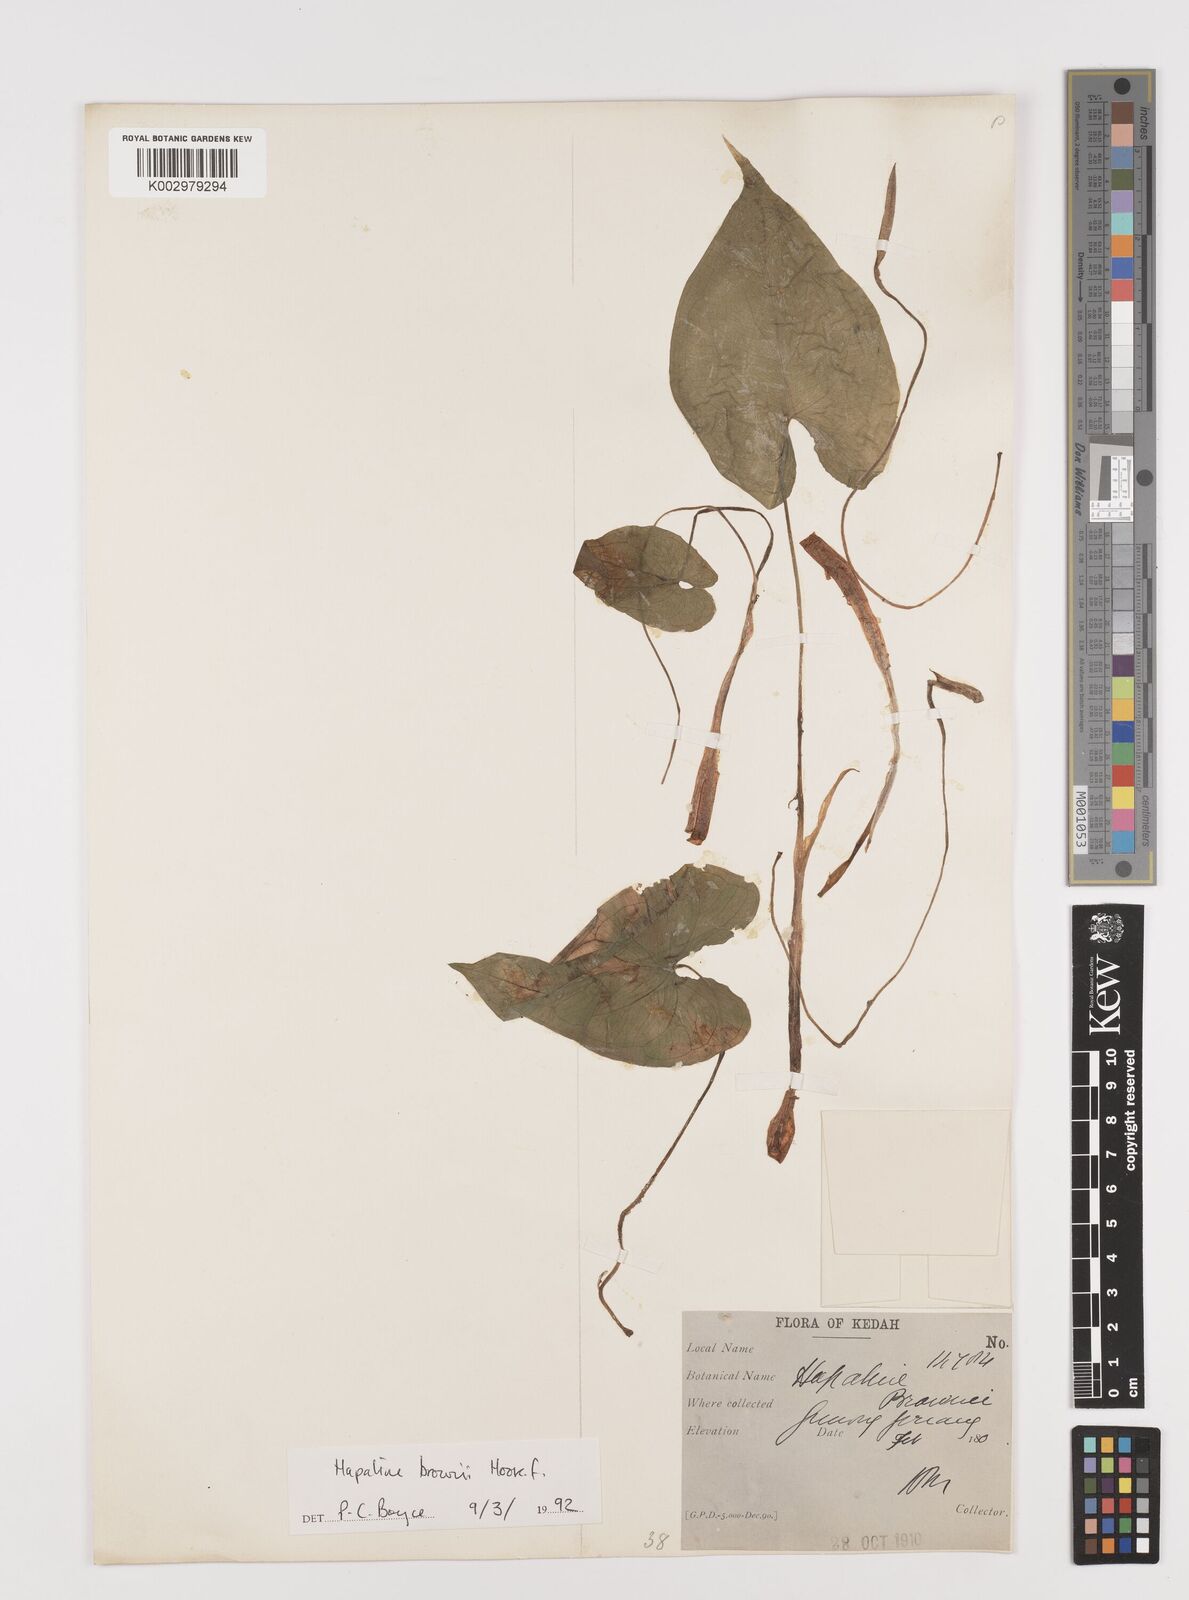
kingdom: Plantae
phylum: Tracheophyta
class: Liliopsida
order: Alismatales
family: Araceae
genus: Hapaline
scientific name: Hapaline brownii
